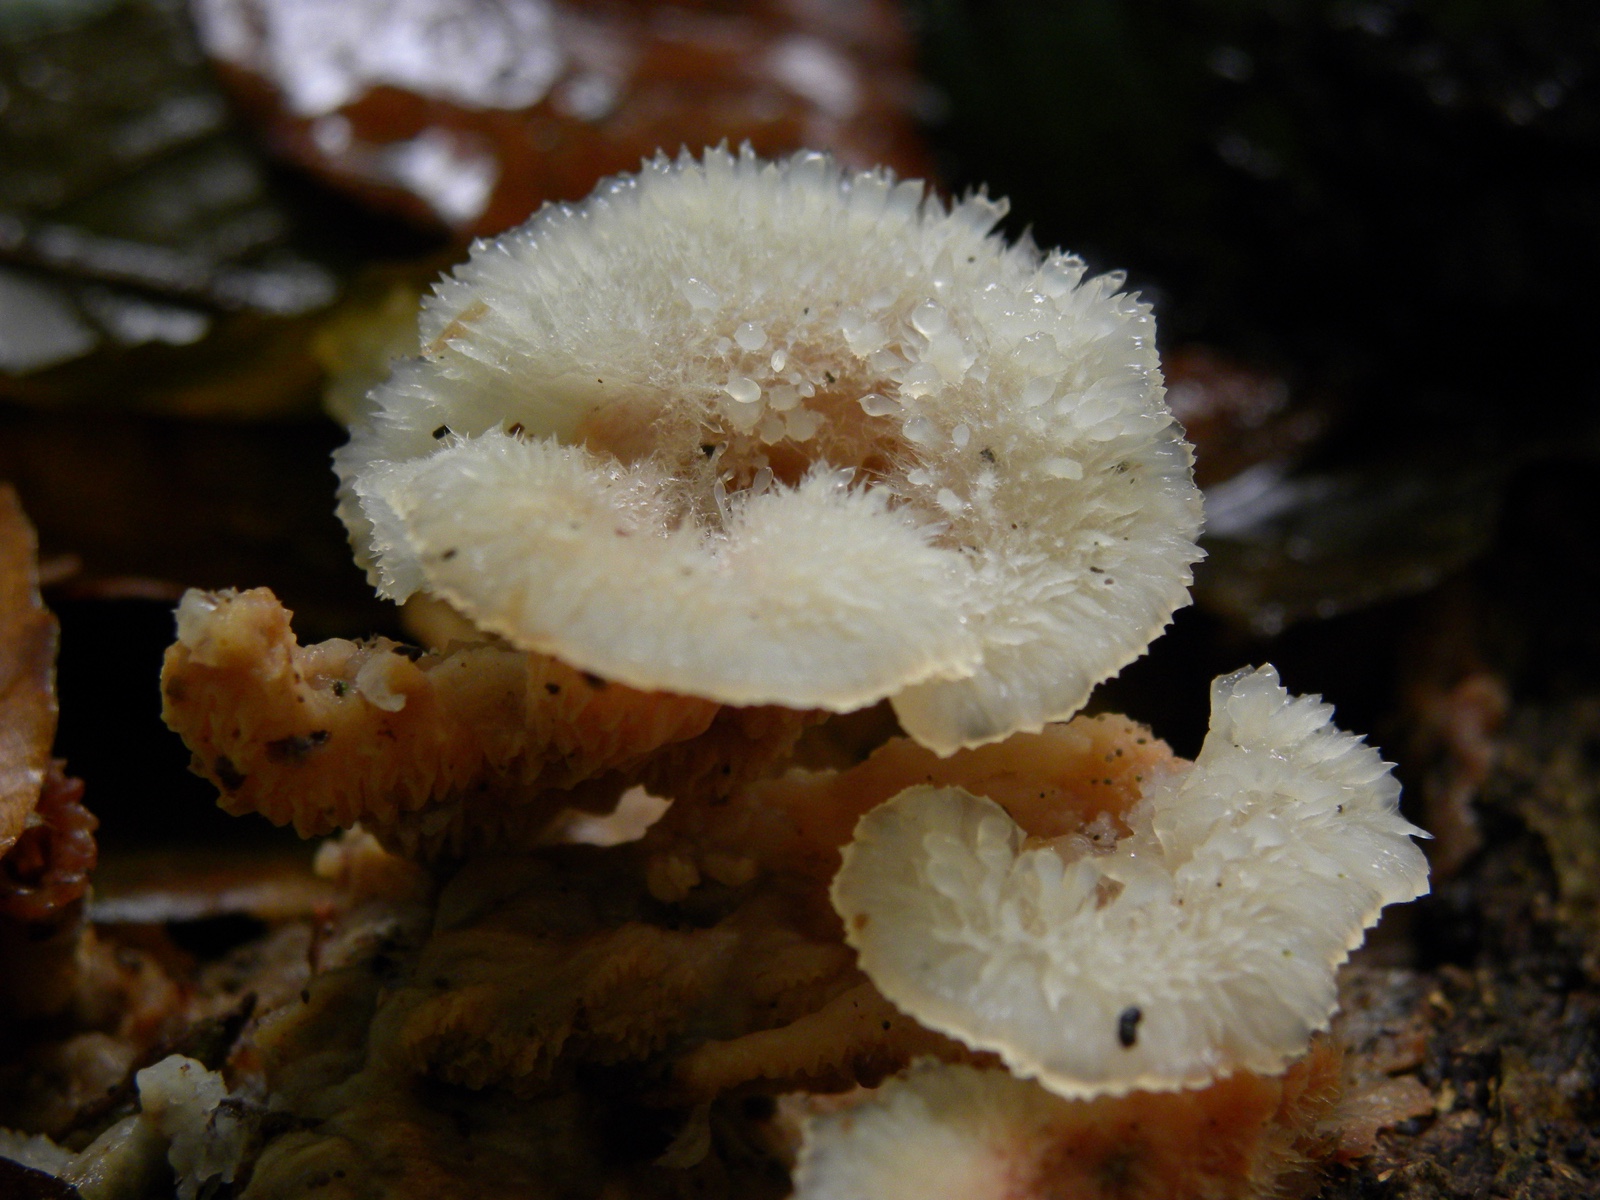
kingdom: Fungi
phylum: Basidiomycota
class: Agaricomycetes
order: Polyporales
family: Meruliaceae
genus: Phlebia
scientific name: Phlebia tremellosa
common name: bævrende åresvamp
